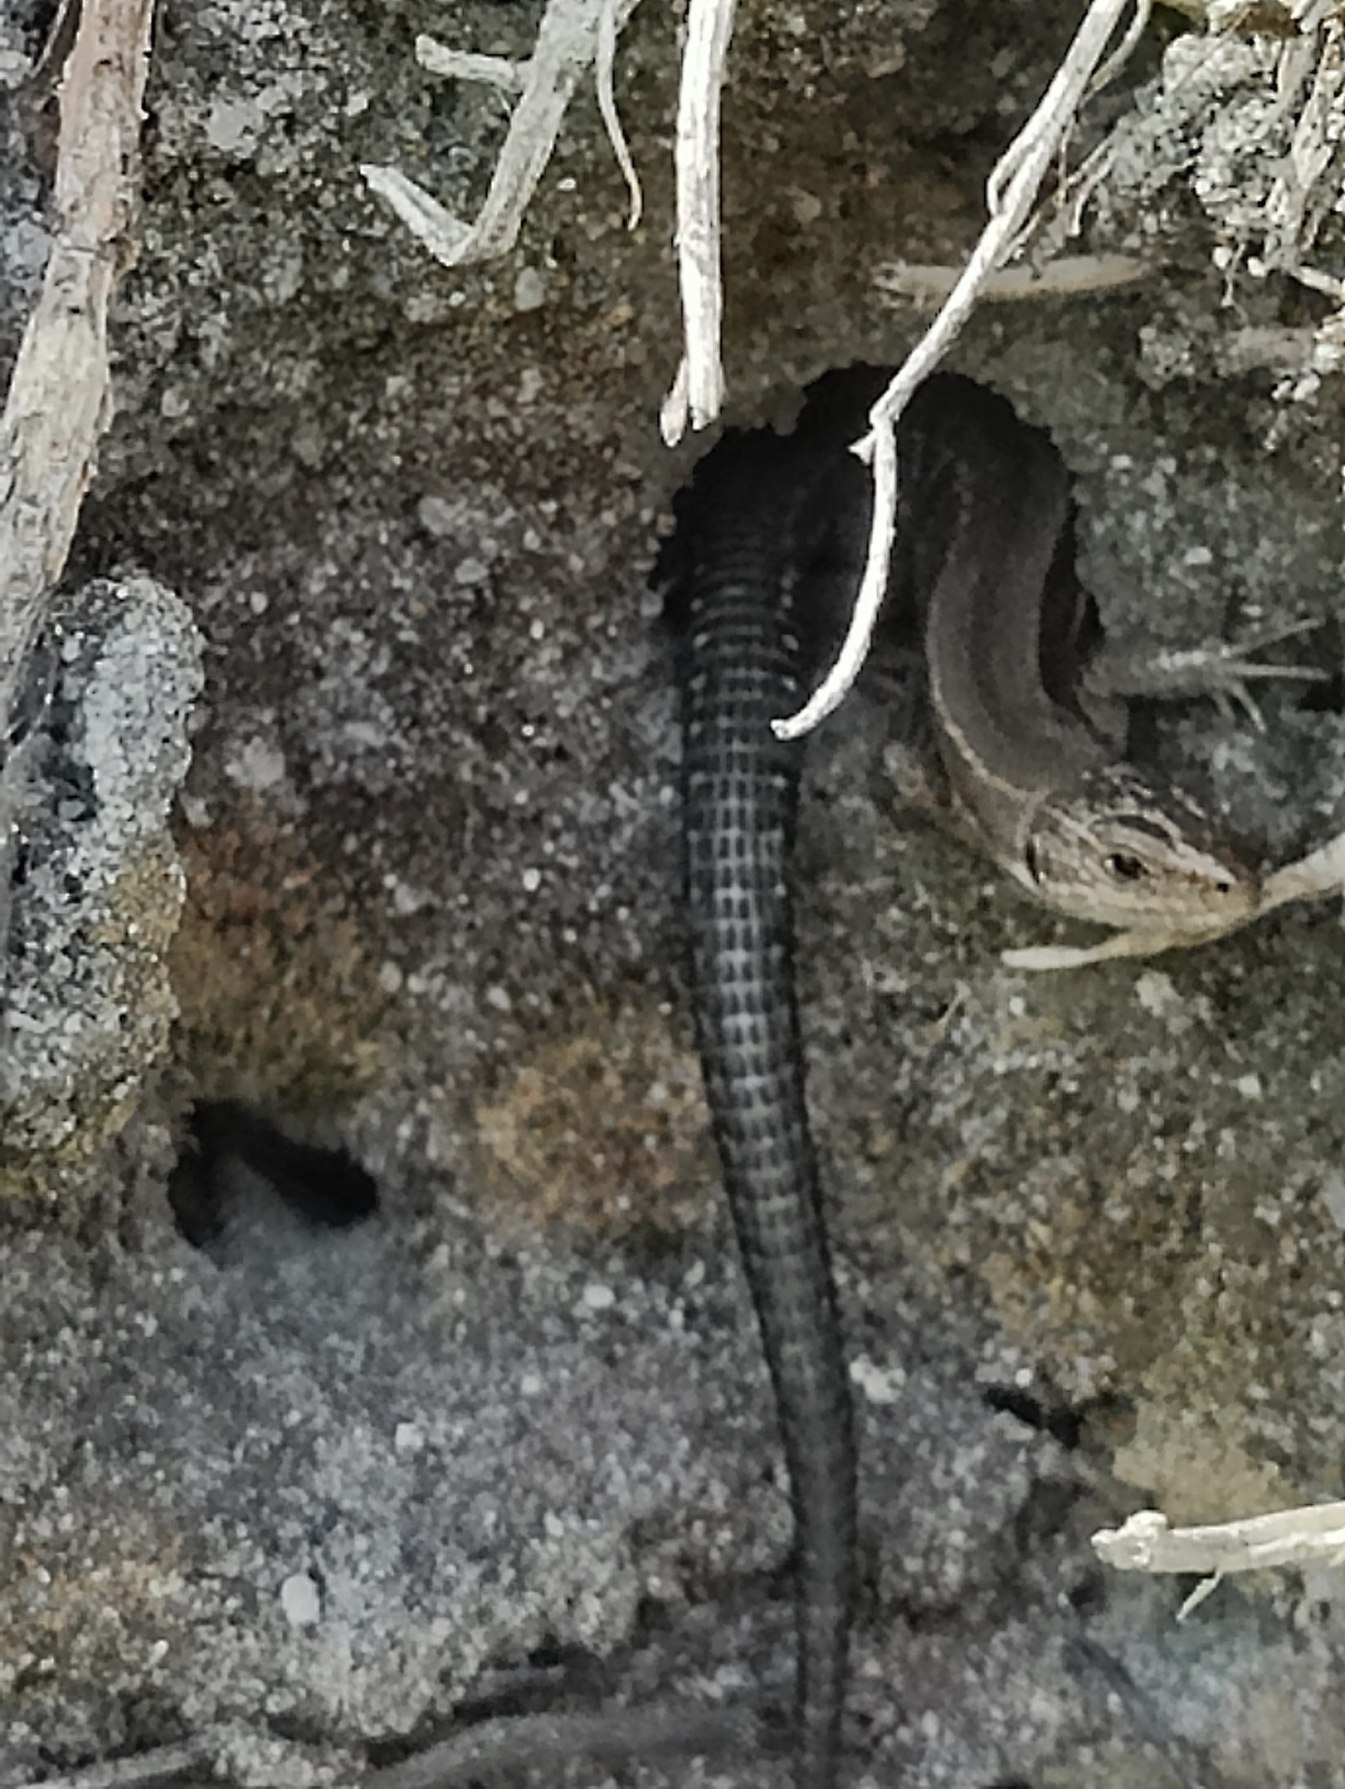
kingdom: Animalia
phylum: Chordata
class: Squamata
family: Lacertidae
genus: Zootoca
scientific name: Zootoca vivipara
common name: Skovfirben
